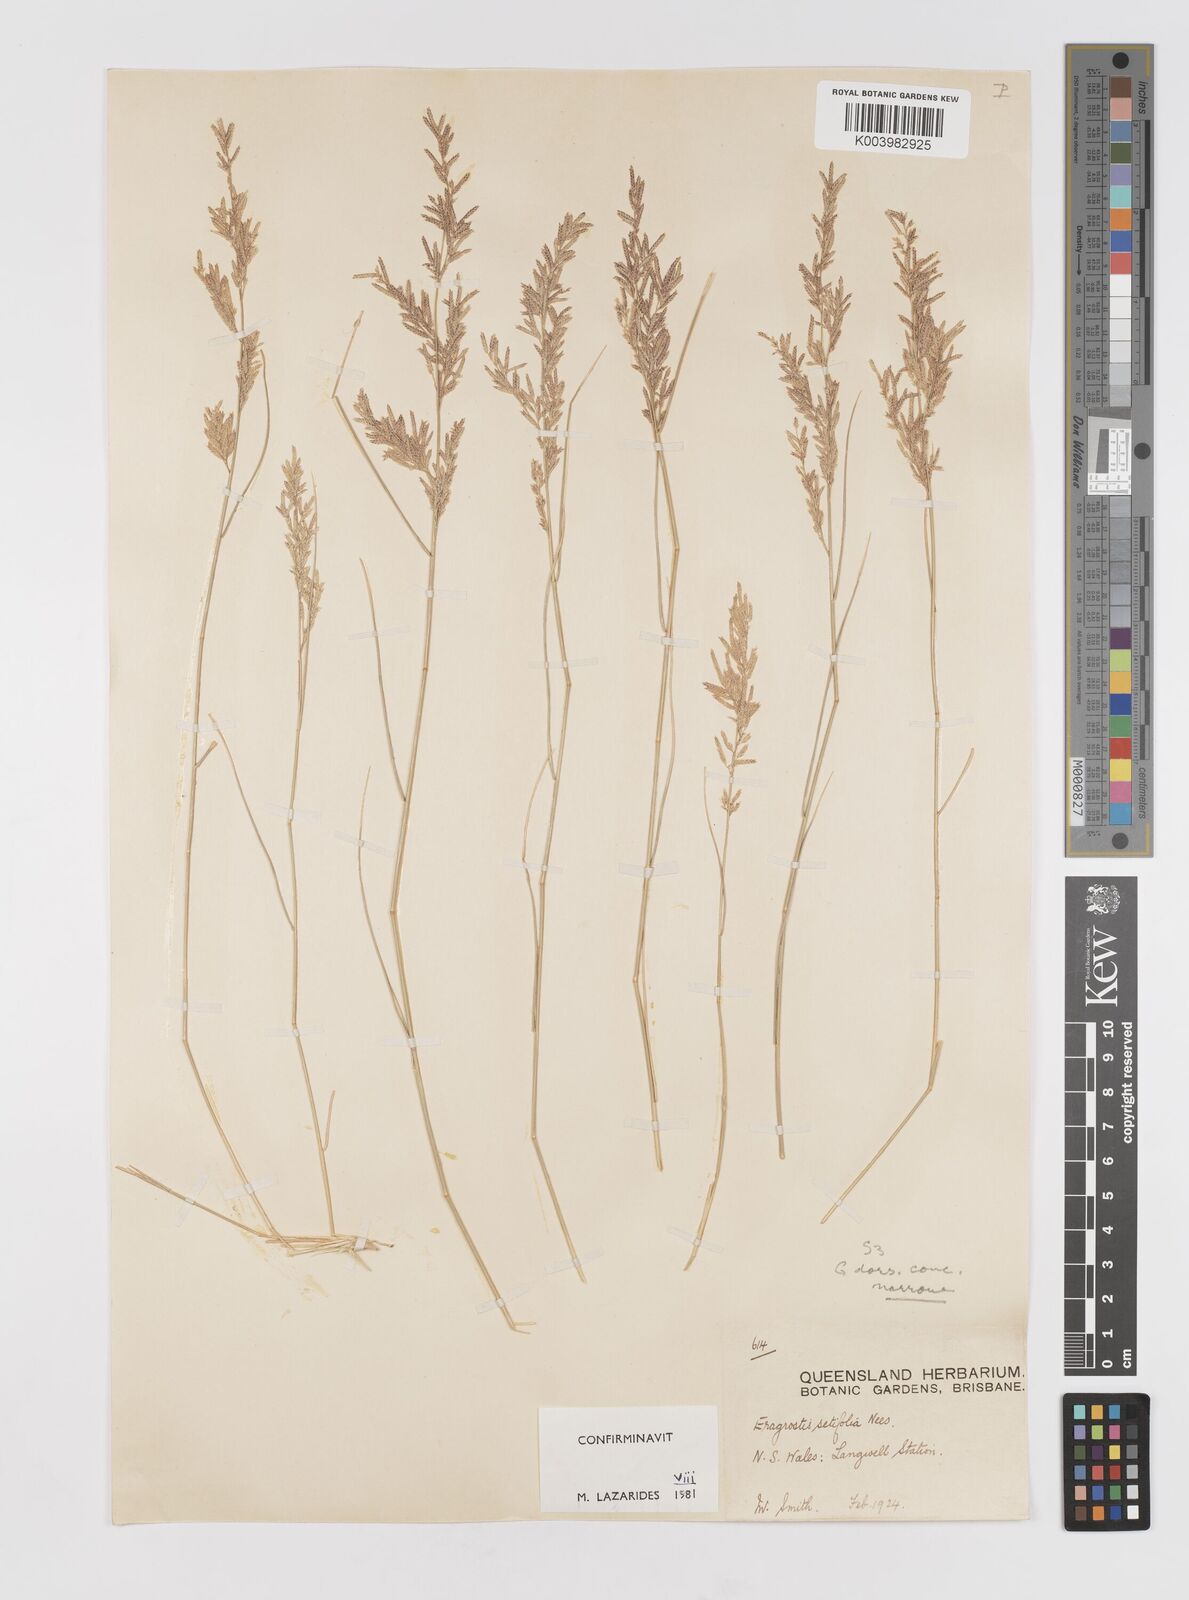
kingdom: Plantae
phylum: Tracheophyta
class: Liliopsida
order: Poales
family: Poaceae
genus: Eragrostis
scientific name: Eragrostis setifolia
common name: Bristleleaf lovegrass
